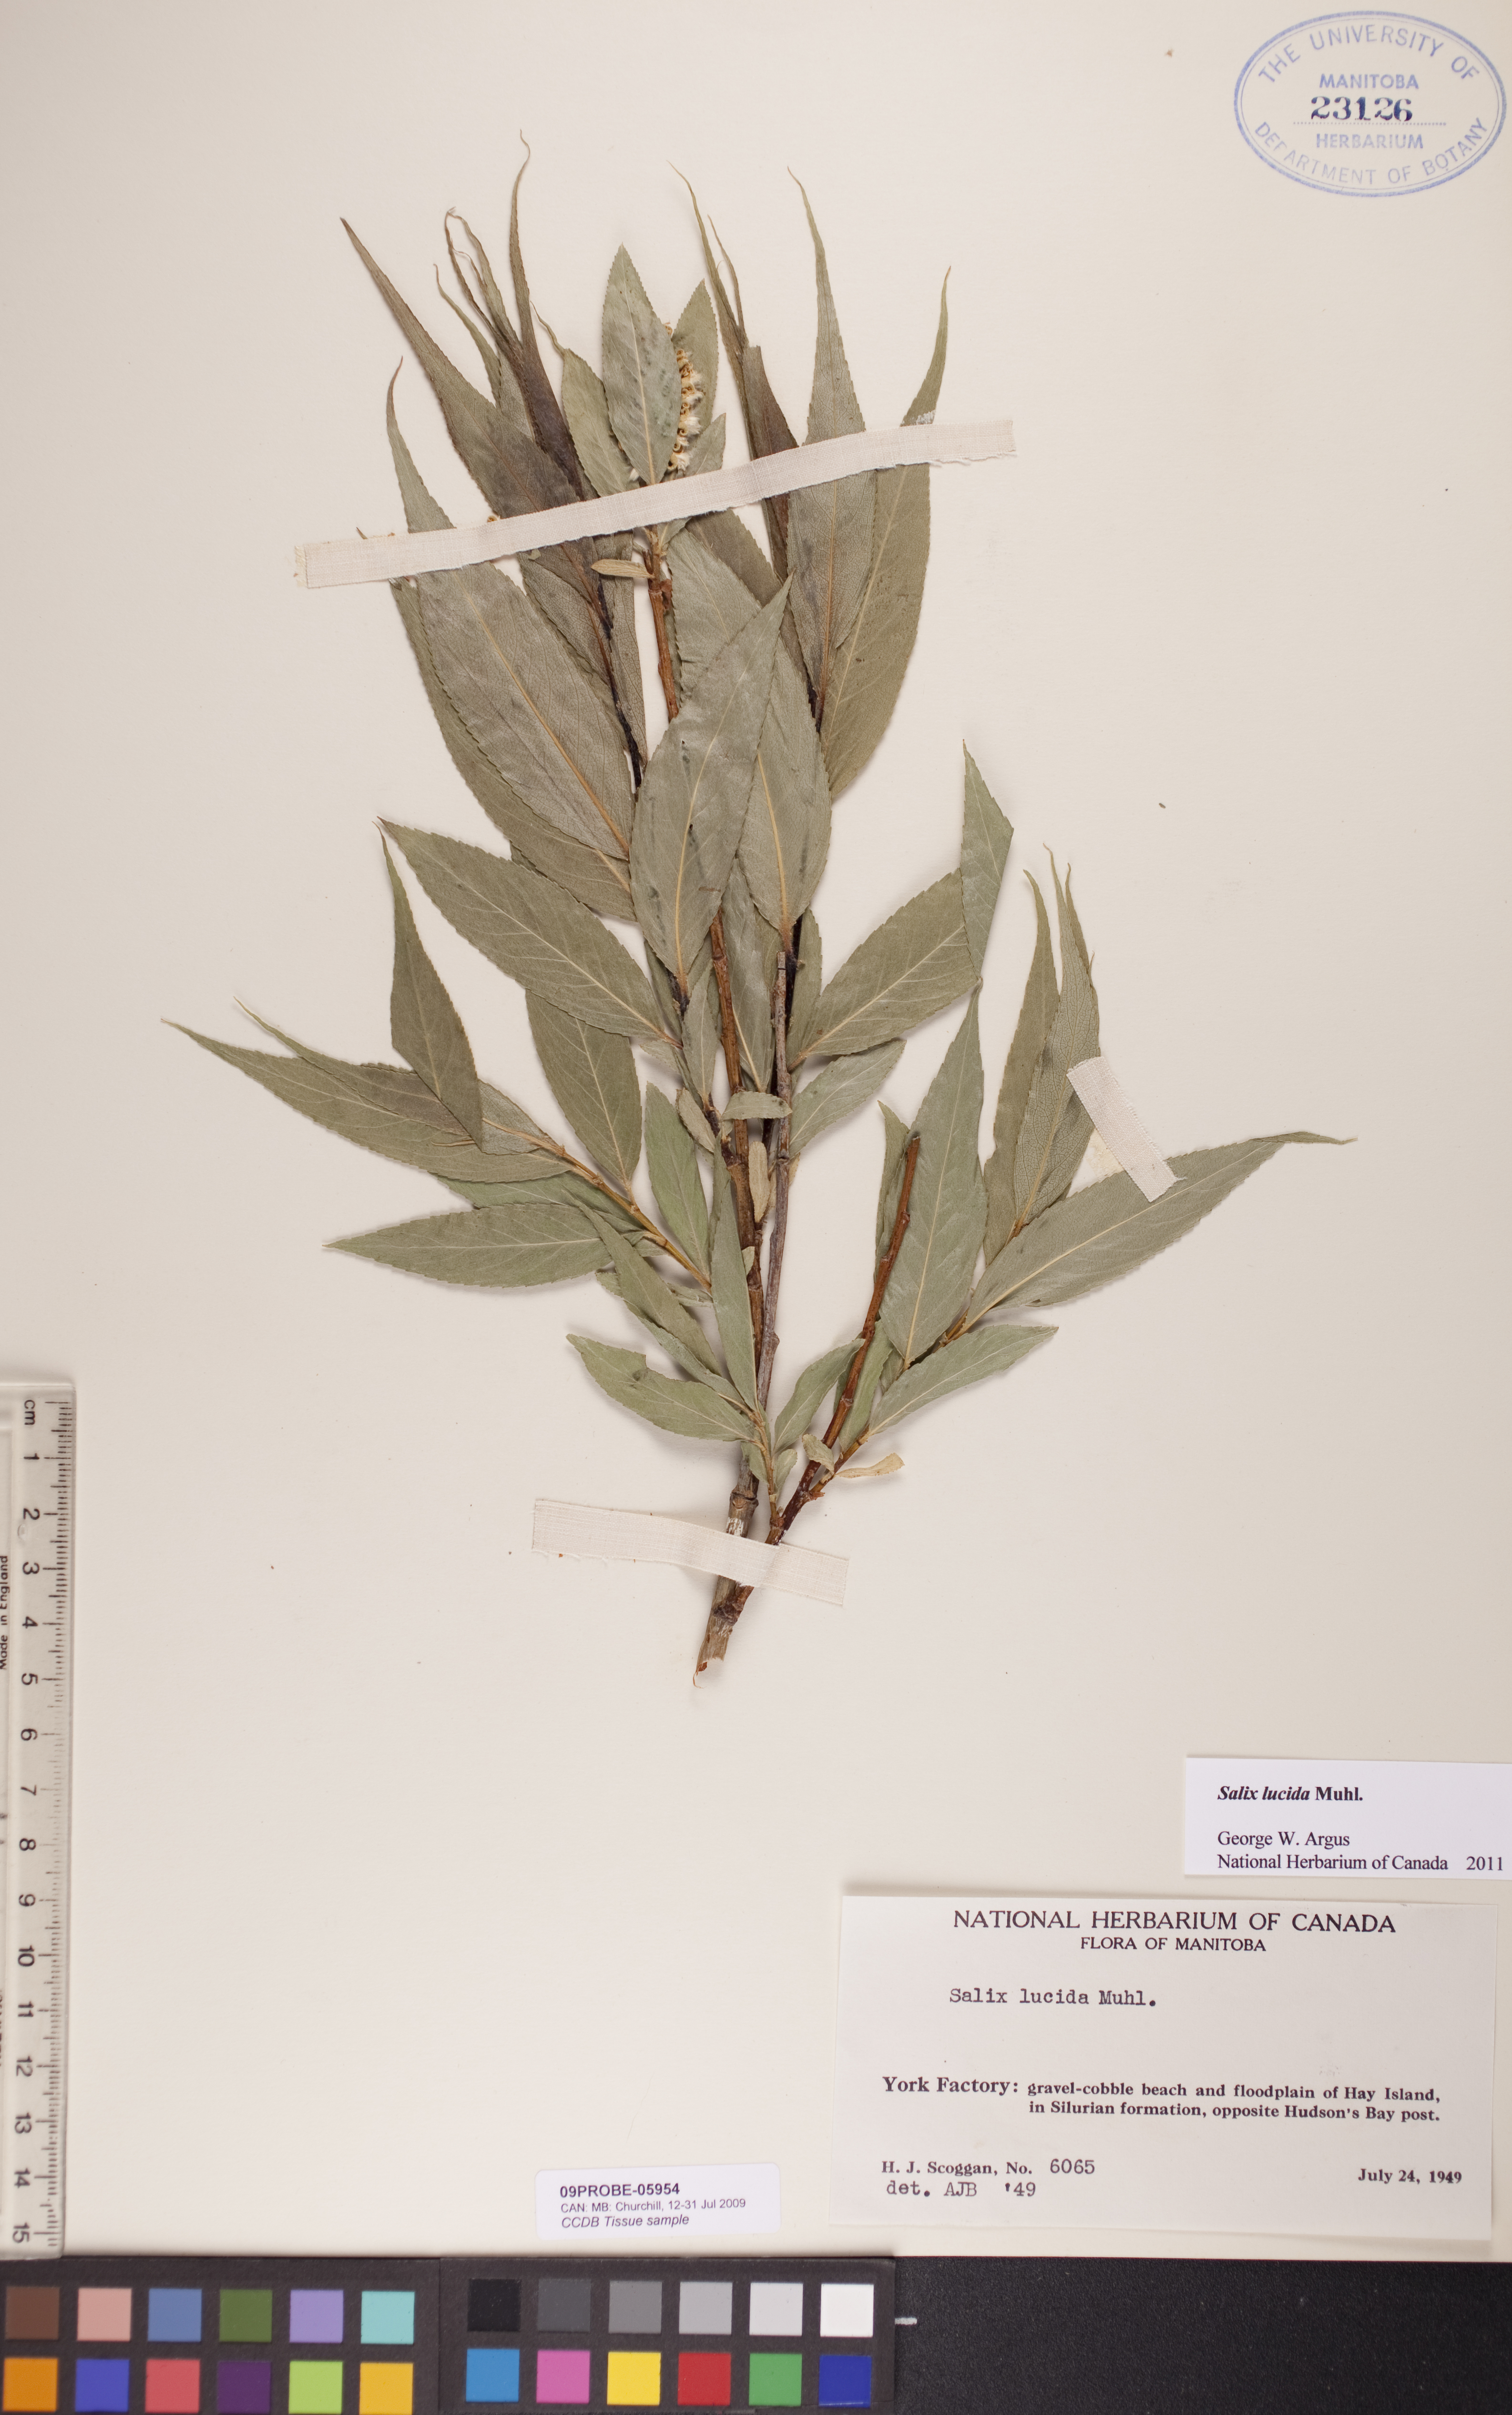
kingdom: Plantae
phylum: Tracheophyta
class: Magnoliopsida
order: Malpighiales
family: Salicaceae
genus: Salix
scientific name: Salix lucida
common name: Shining willow
